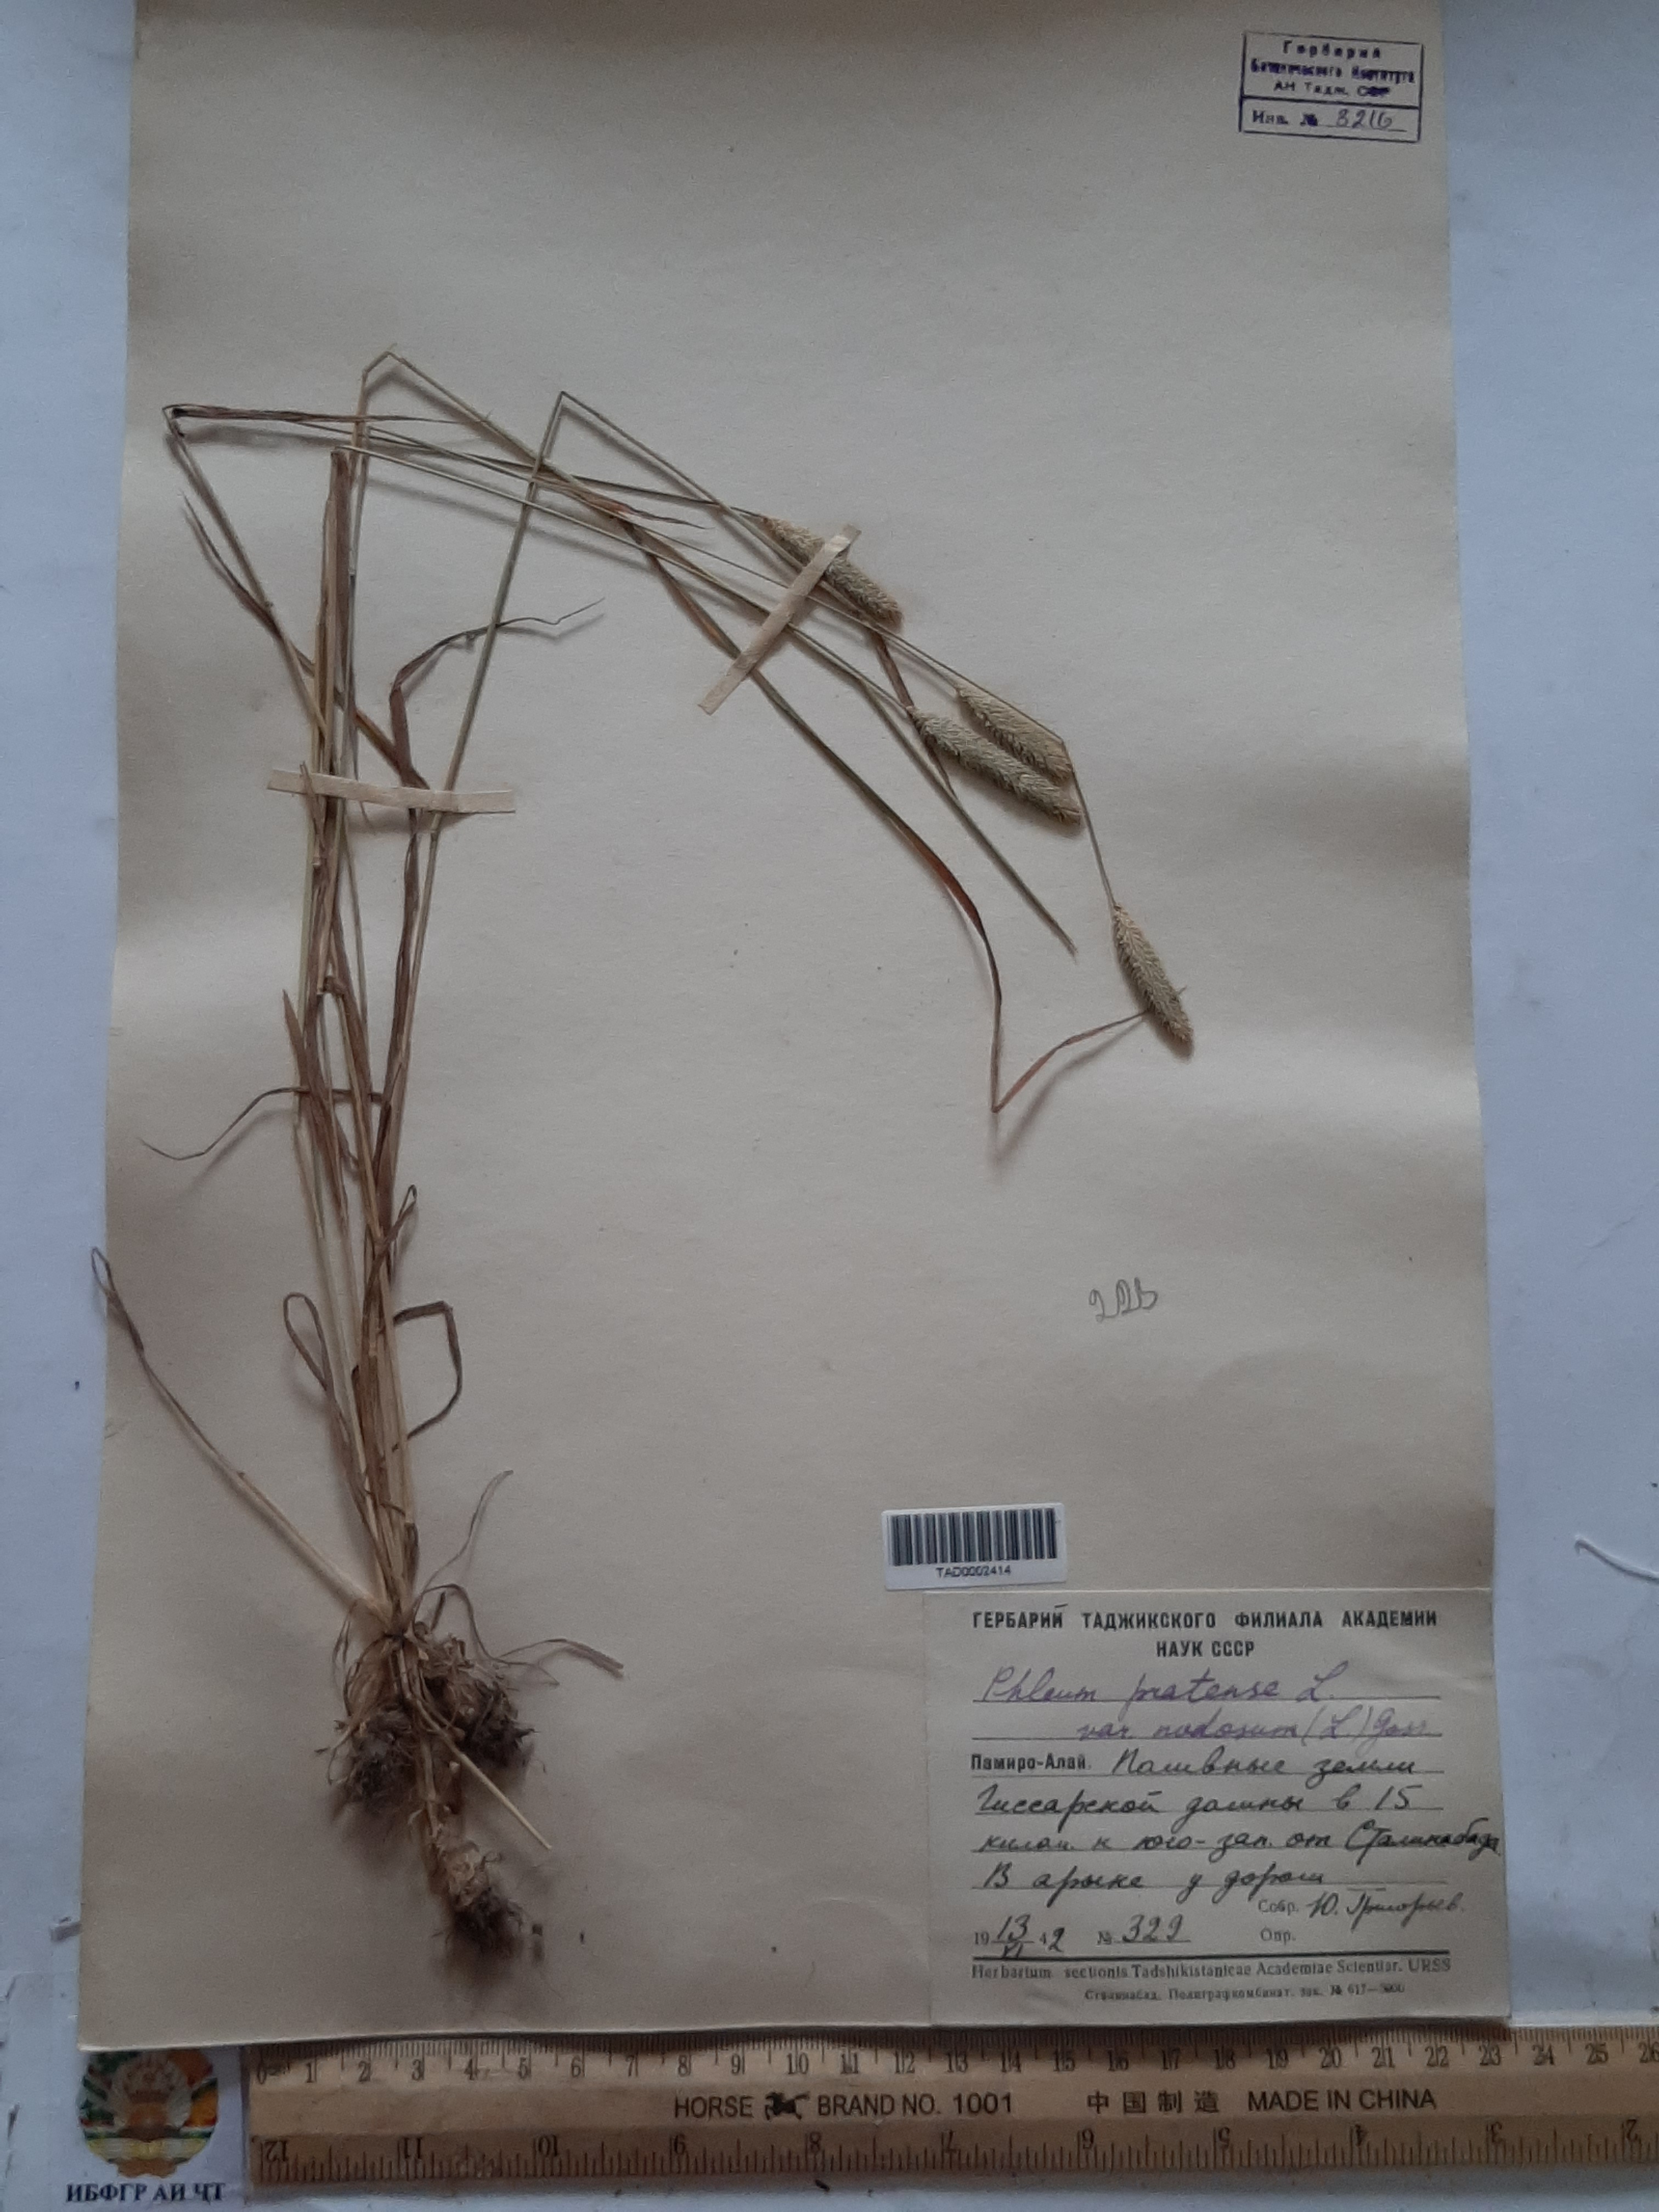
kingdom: Plantae
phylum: Tracheophyta
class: Liliopsida
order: Poales
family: Poaceae
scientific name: Poaceae
